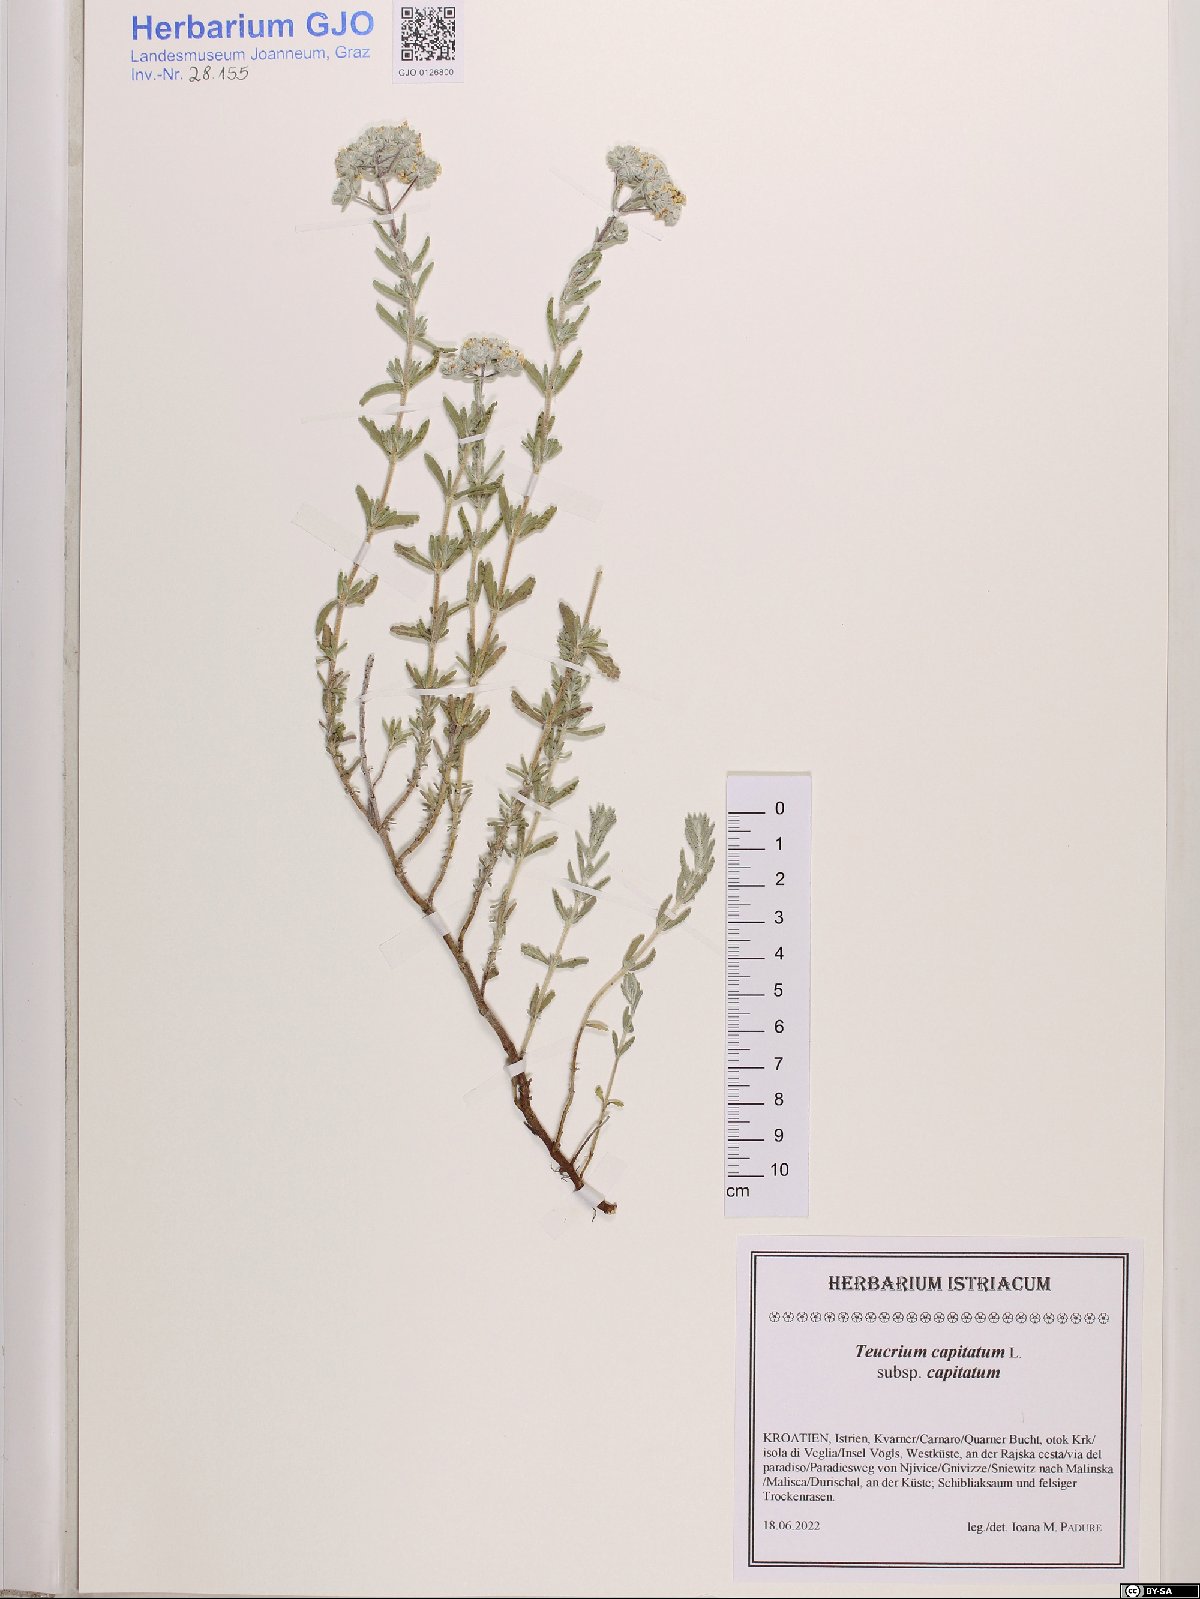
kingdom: Plantae
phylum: Tracheophyta
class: Magnoliopsida
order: Lamiales
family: Lamiaceae
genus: Teucrium
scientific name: Teucrium capitatum
